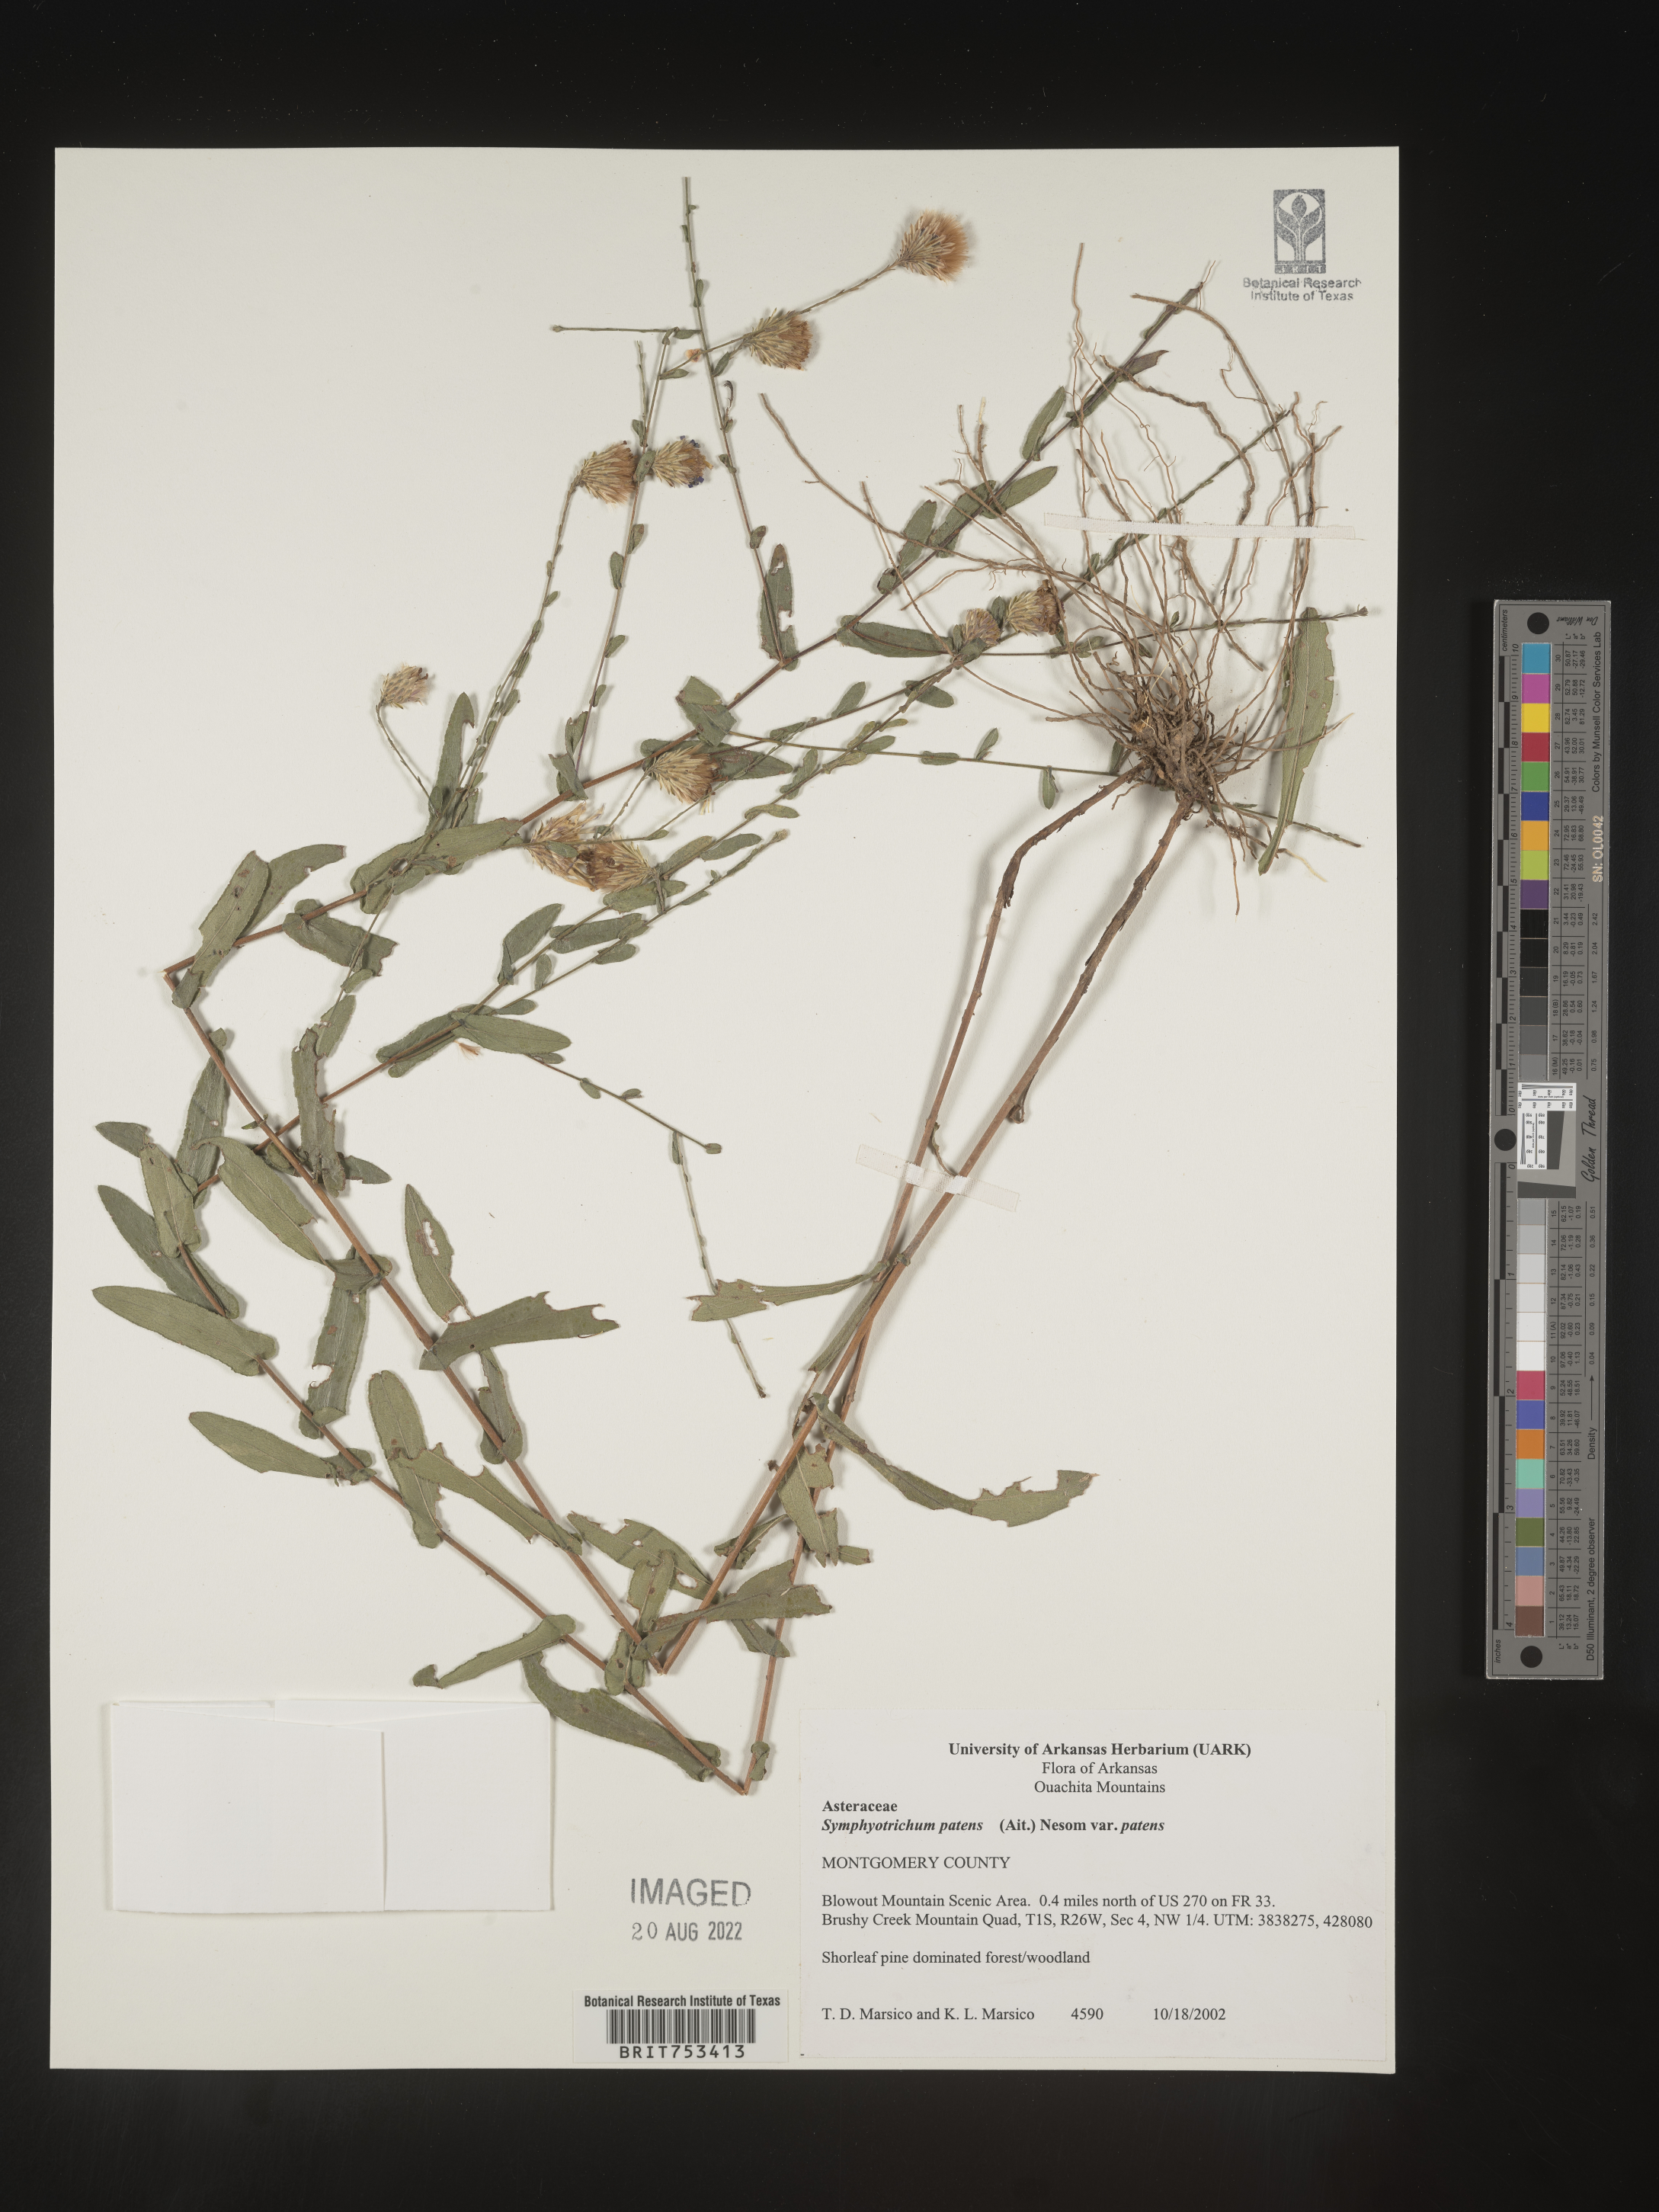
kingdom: Plantae
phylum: Tracheophyta
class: Magnoliopsida
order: Asterales
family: Asteraceae
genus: Symphyotrichum
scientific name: Symphyotrichum patens
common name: Late purple aster
